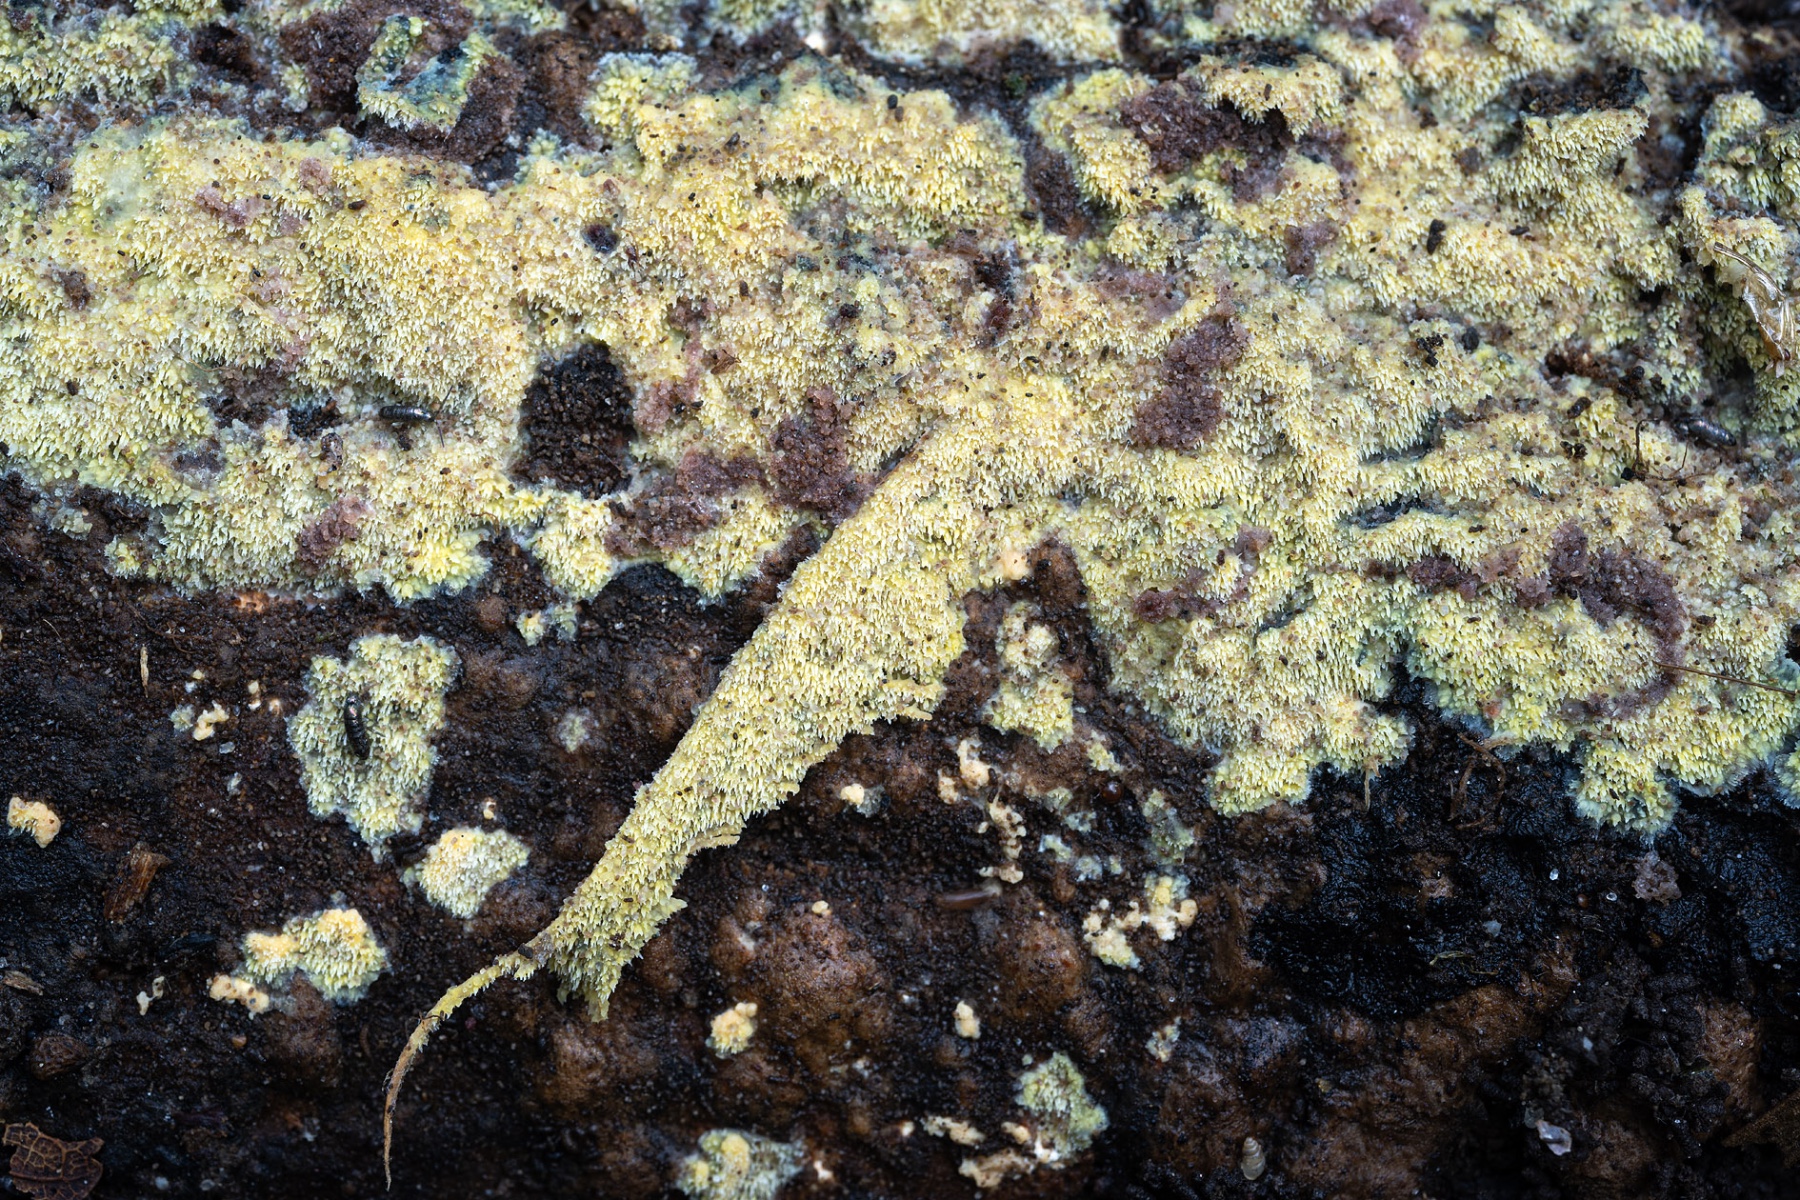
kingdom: Fungi
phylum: Basidiomycota
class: Agaricomycetes
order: Polyporales
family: Meruliaceae
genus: Mycoacia
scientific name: Mycoacia uda
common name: citrongul vokspig
